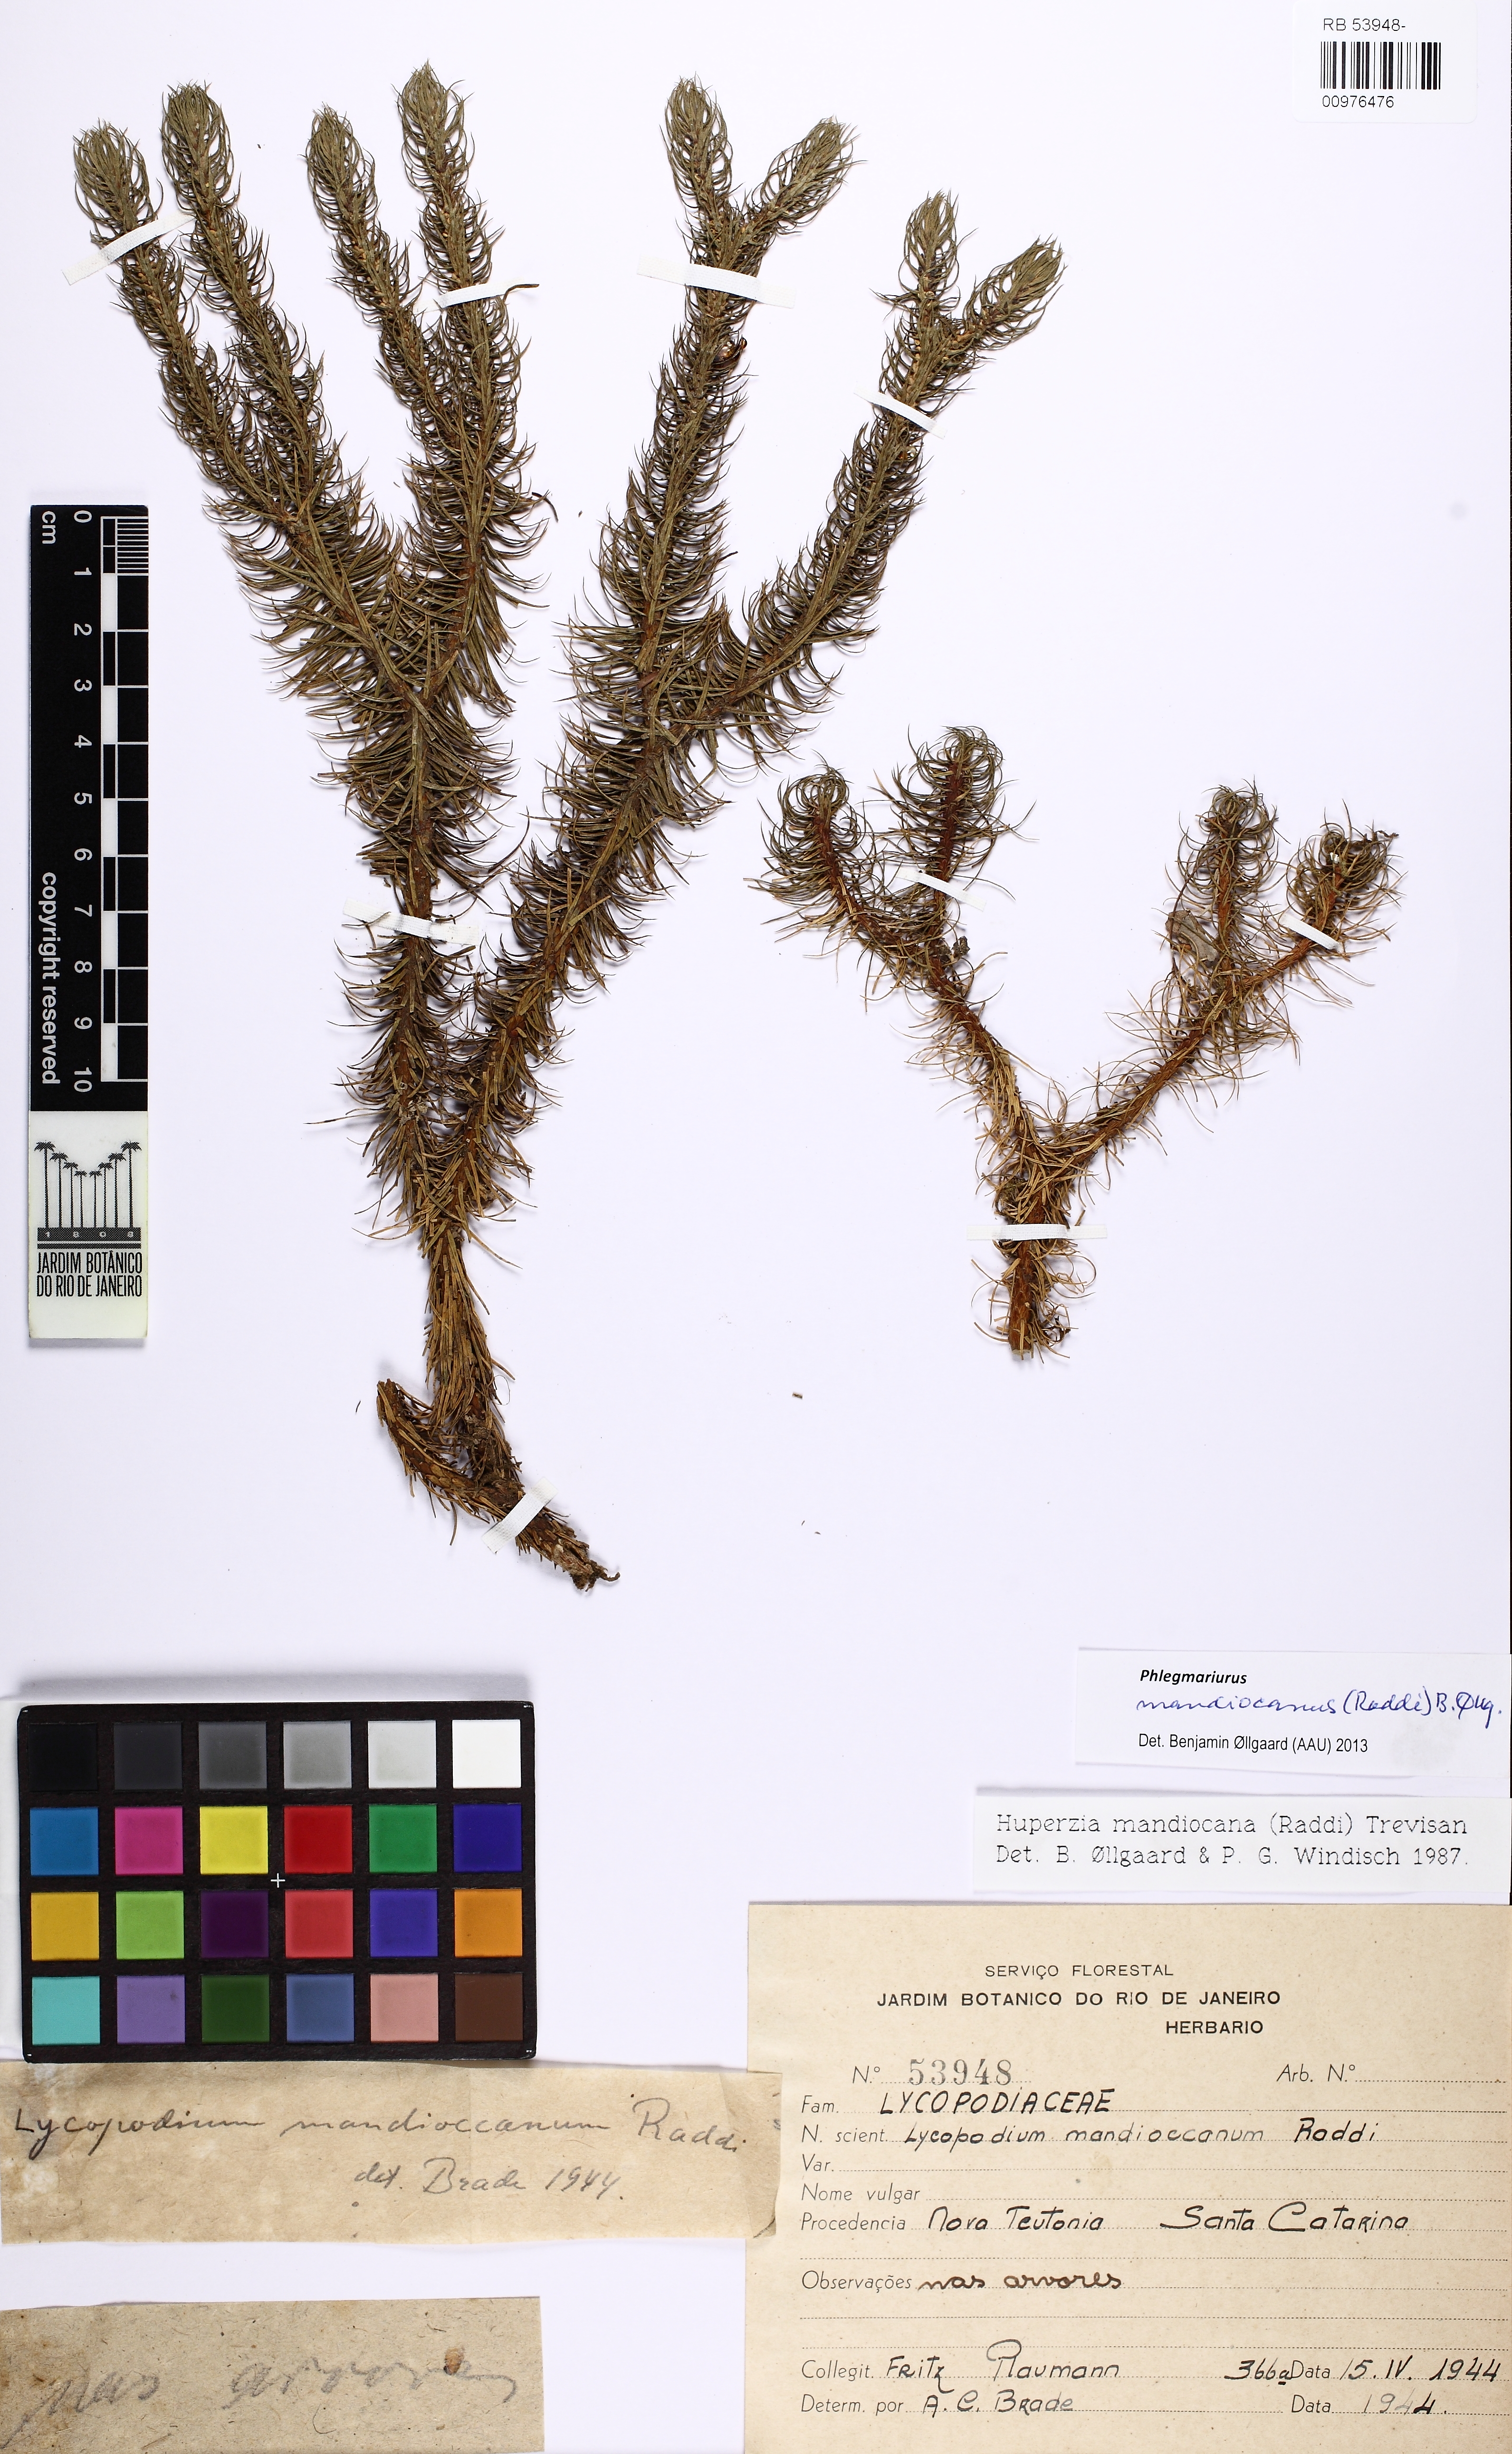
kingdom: Plantae
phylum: Tracheophyta
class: Lycopodiopsida
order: Lycopodiales
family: Lycopodiaceae
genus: Phlegmariurus
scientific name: Phlegmariurus mandiocanus
